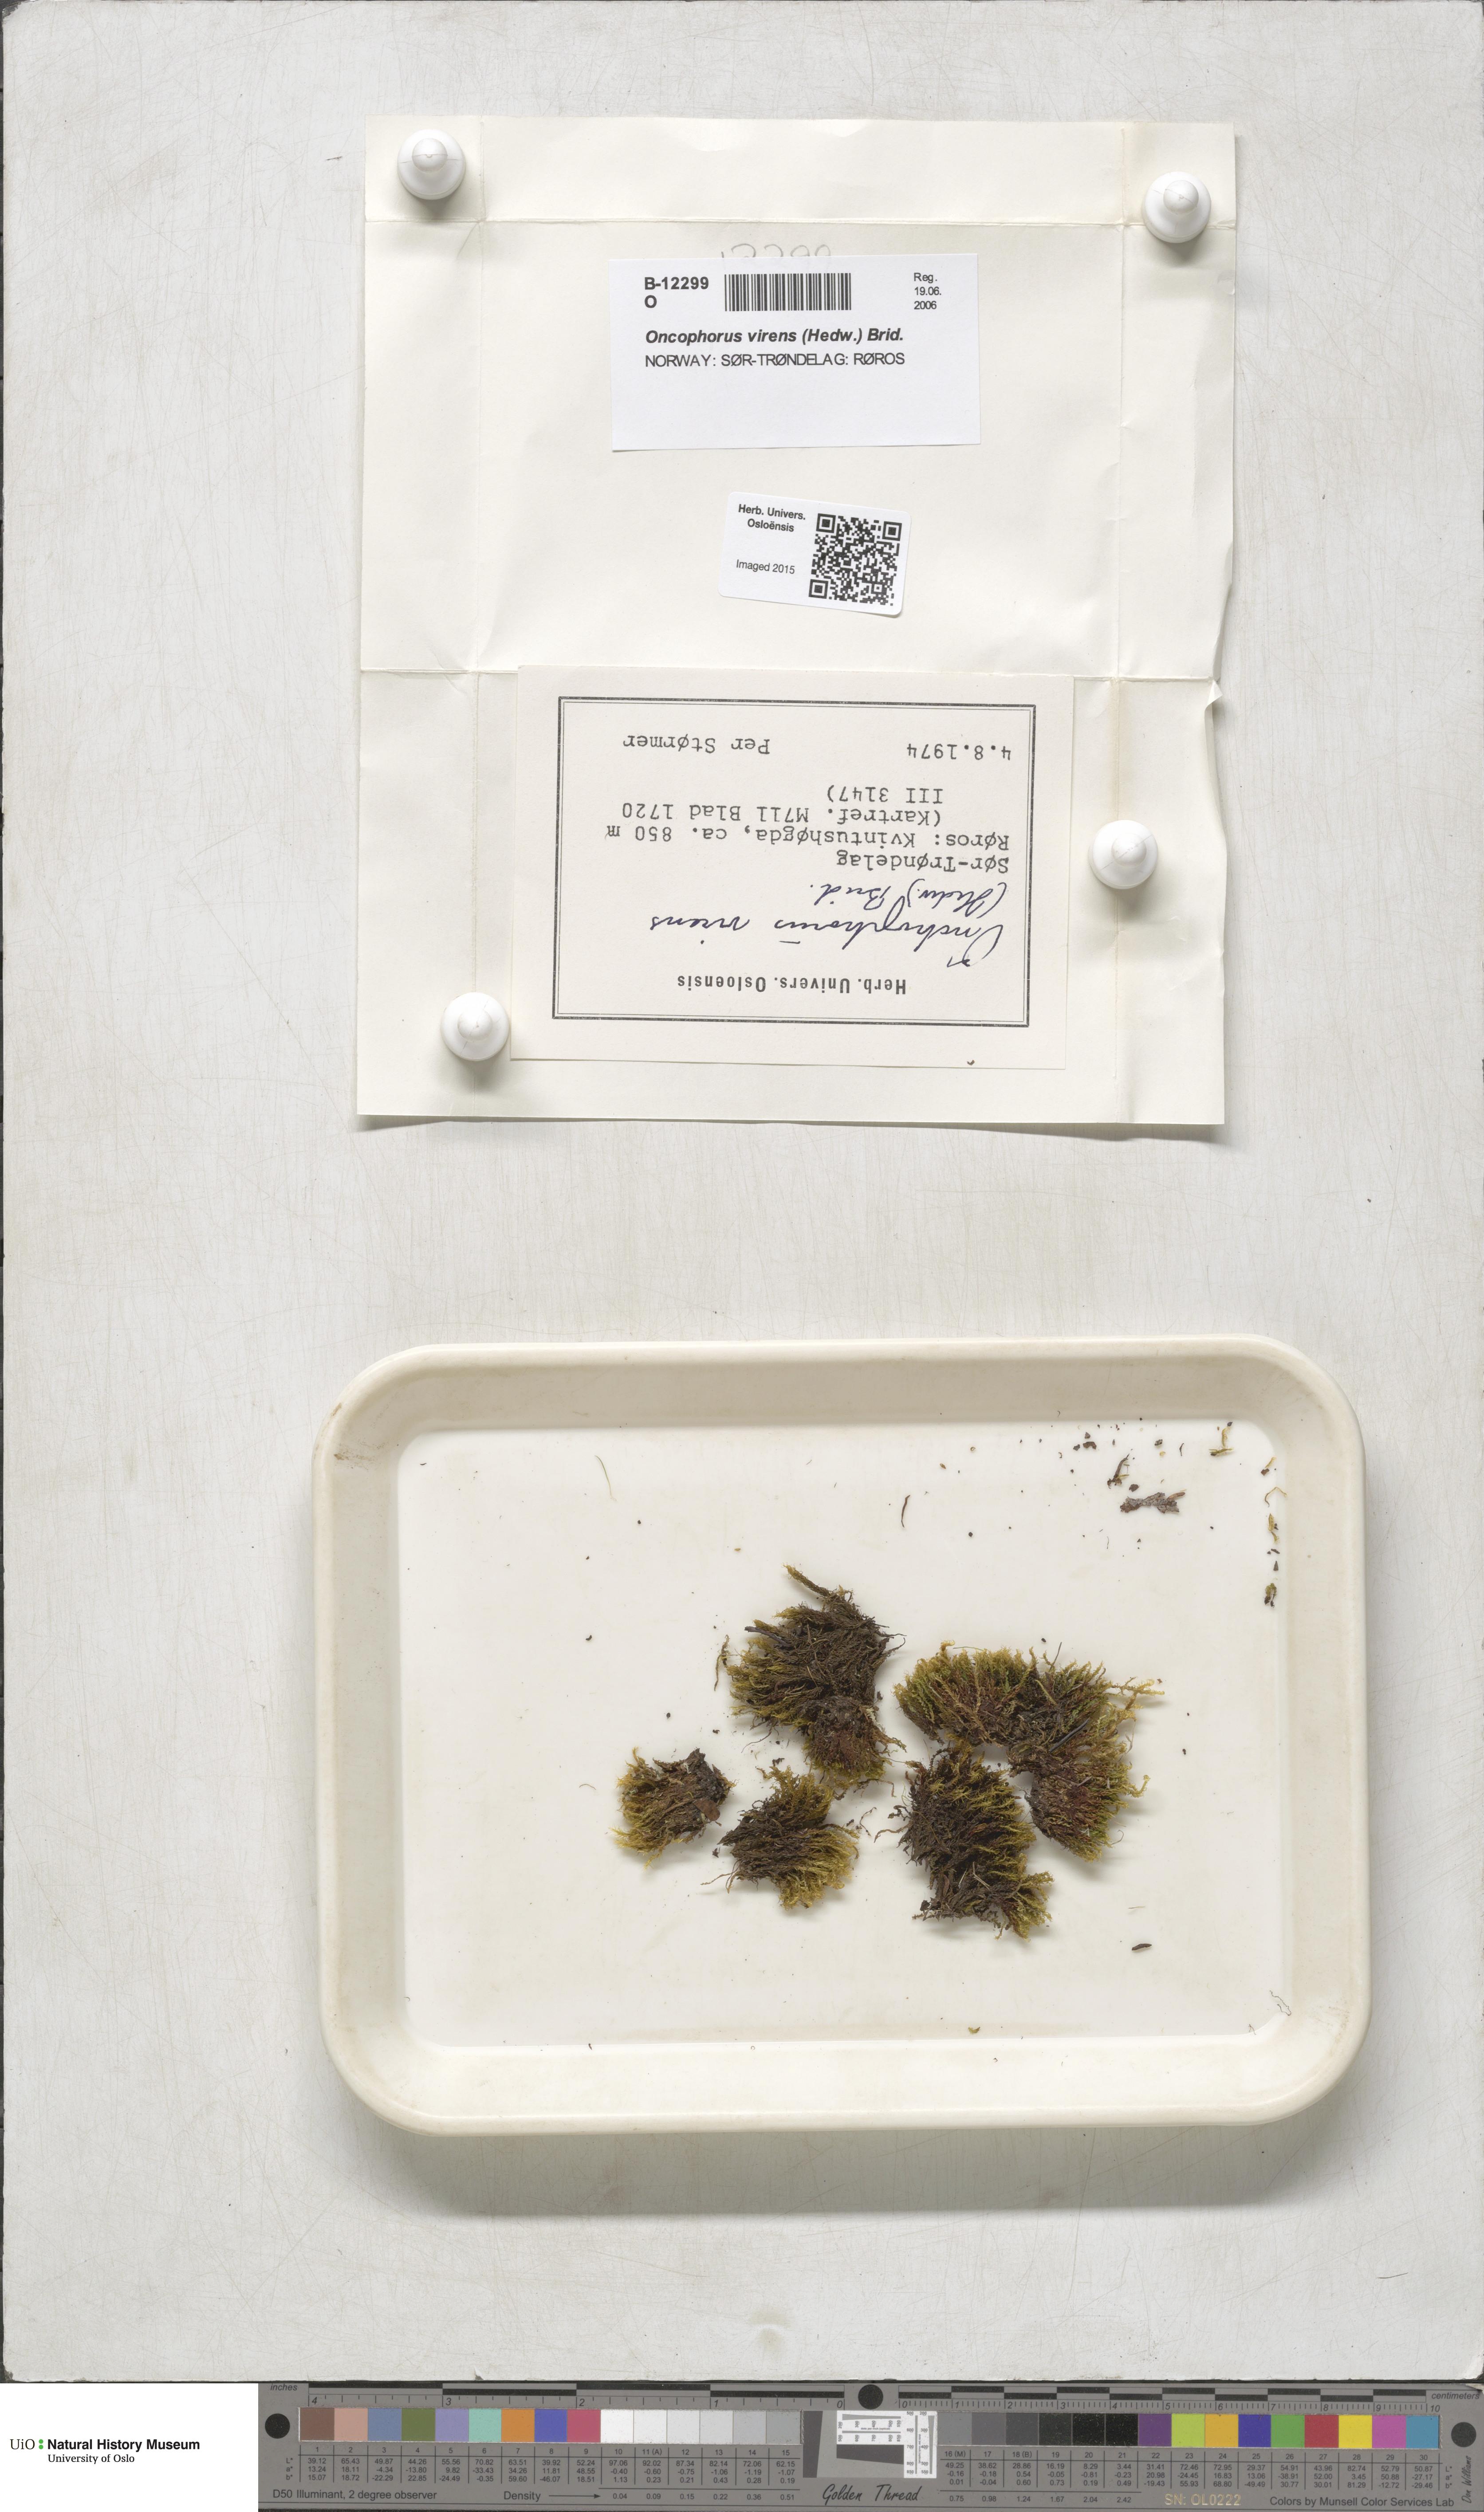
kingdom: Plantae
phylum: Bryophyta
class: Bryopsida
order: Dicranales
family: Rhabdoweisiaceae
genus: Oncophorus
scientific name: Oncophorus virens
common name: Green spur moss
